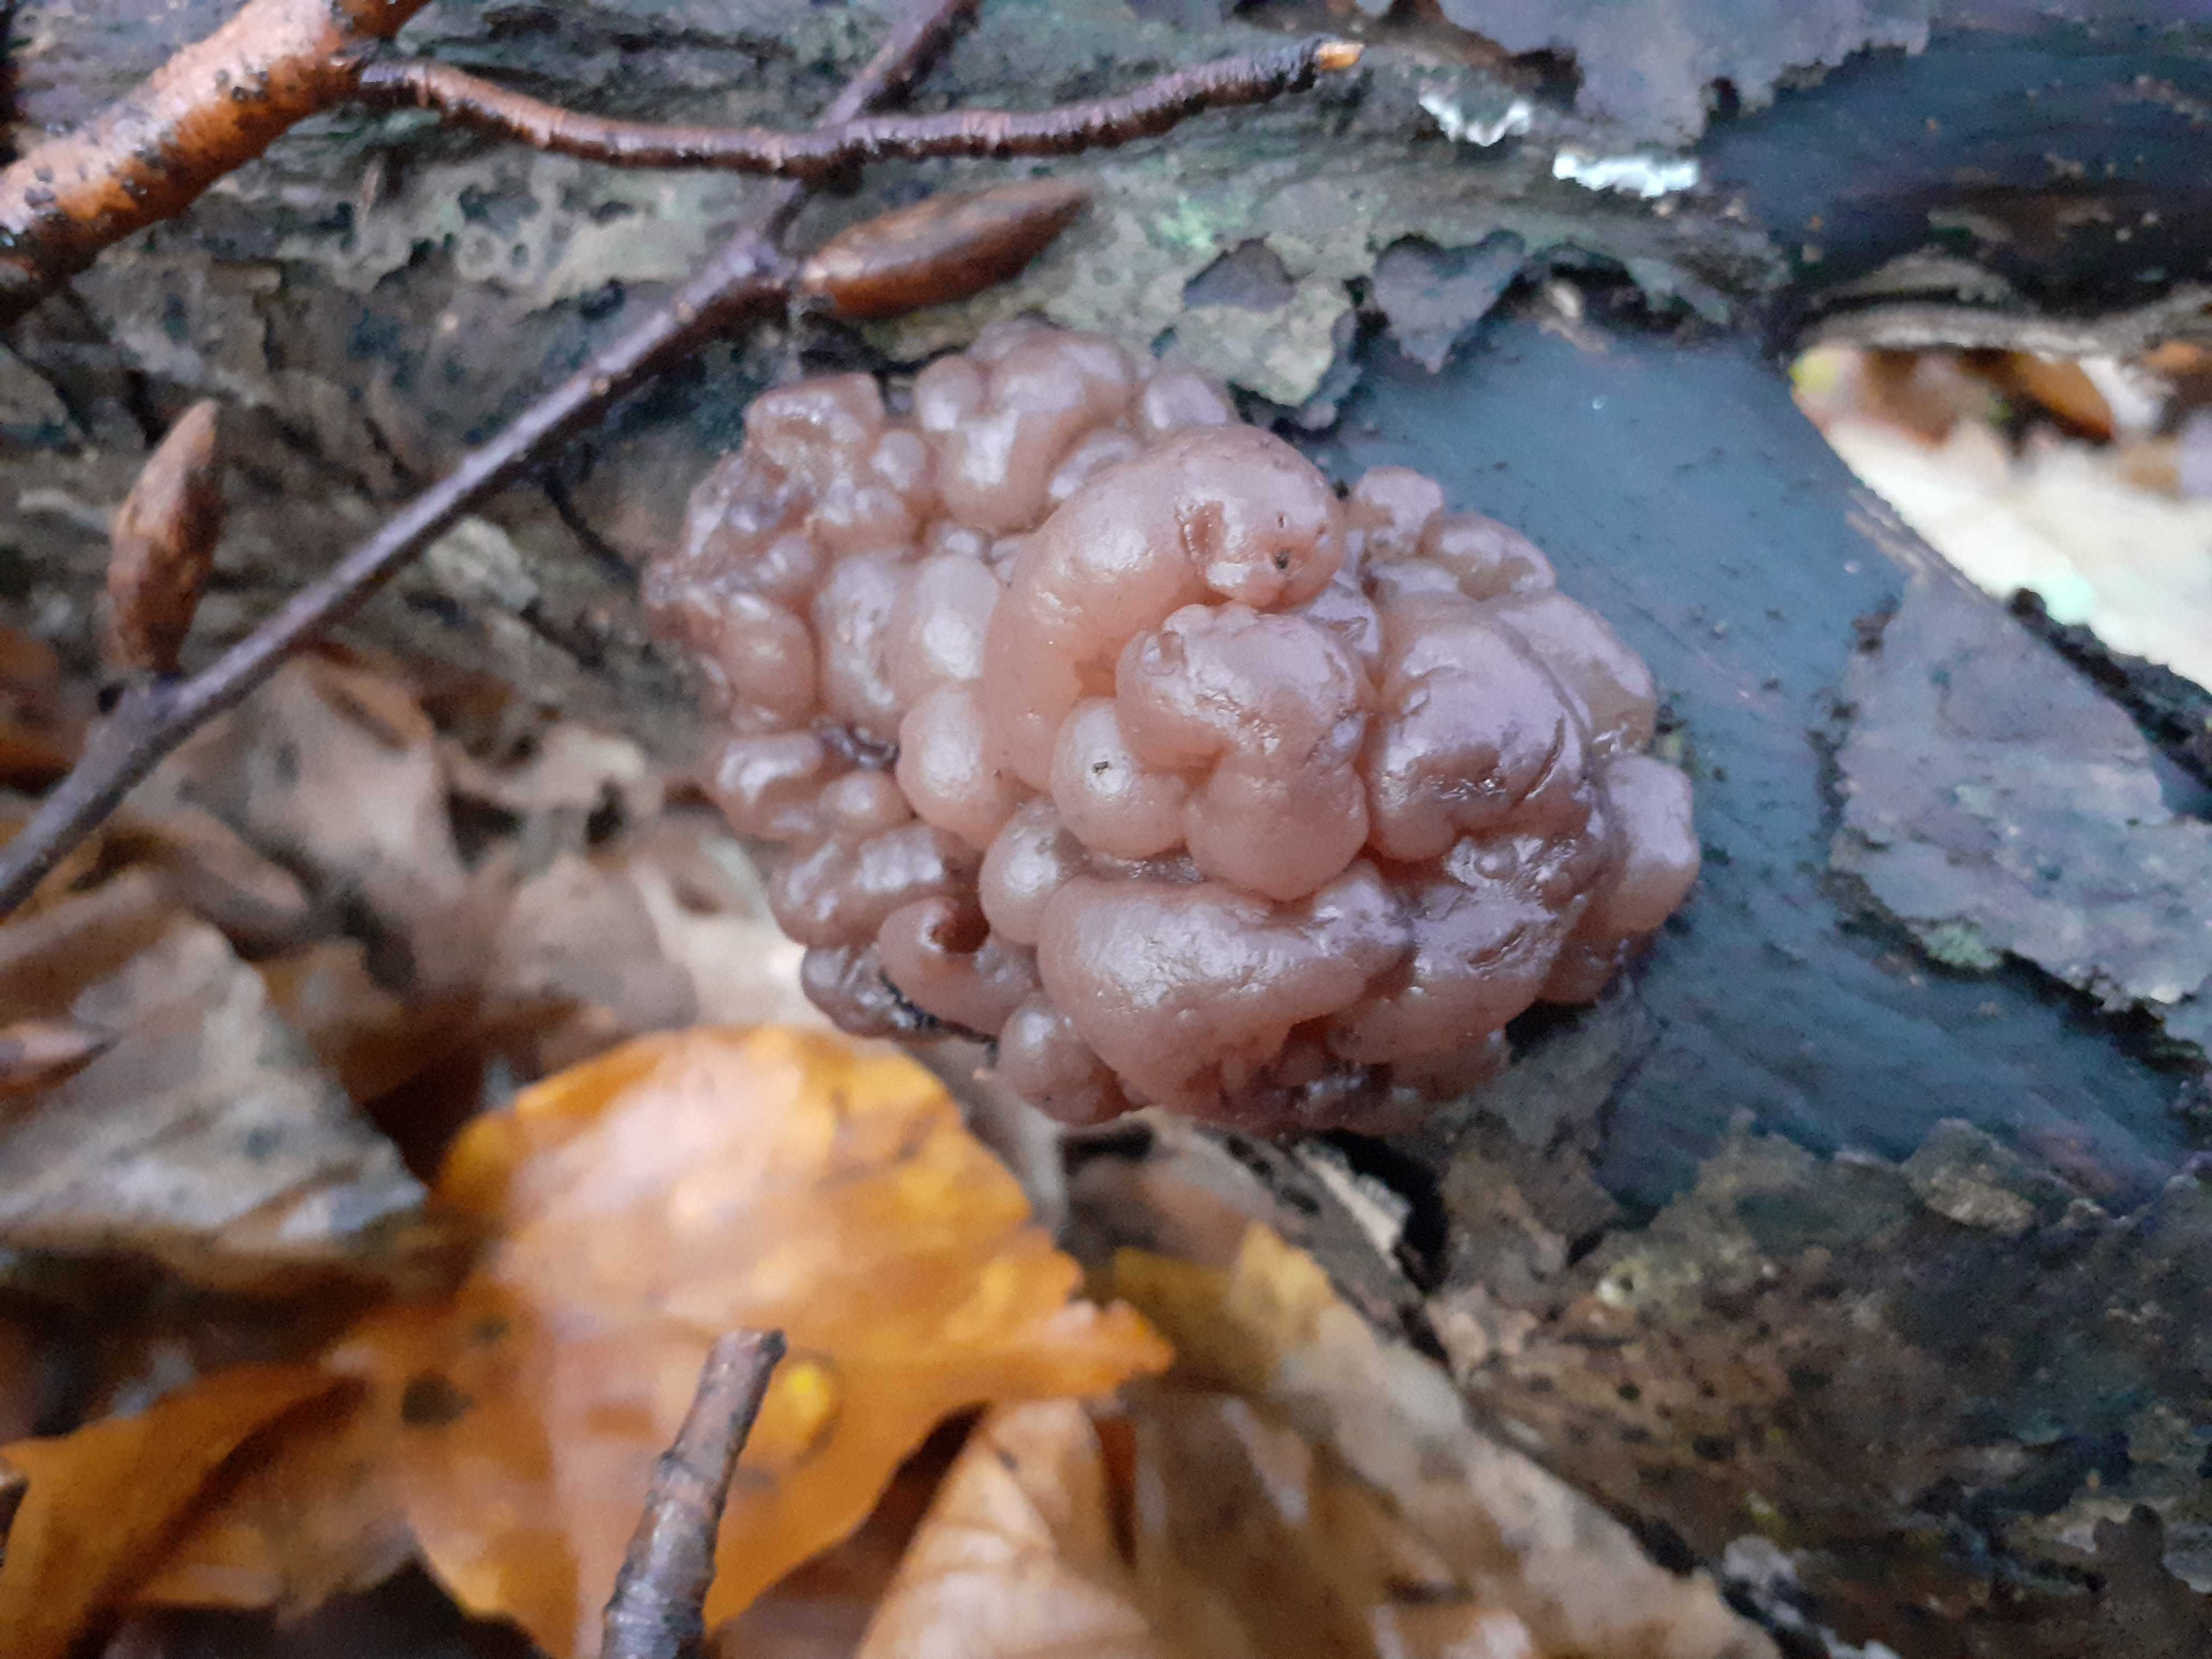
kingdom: Fungi
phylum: Ascomycota
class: Leotiomycetes
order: Helotiales
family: Gelatinodiscaceae
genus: Ascotremella
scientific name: Ascotremella faginea
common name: hjerne-bævreskive
